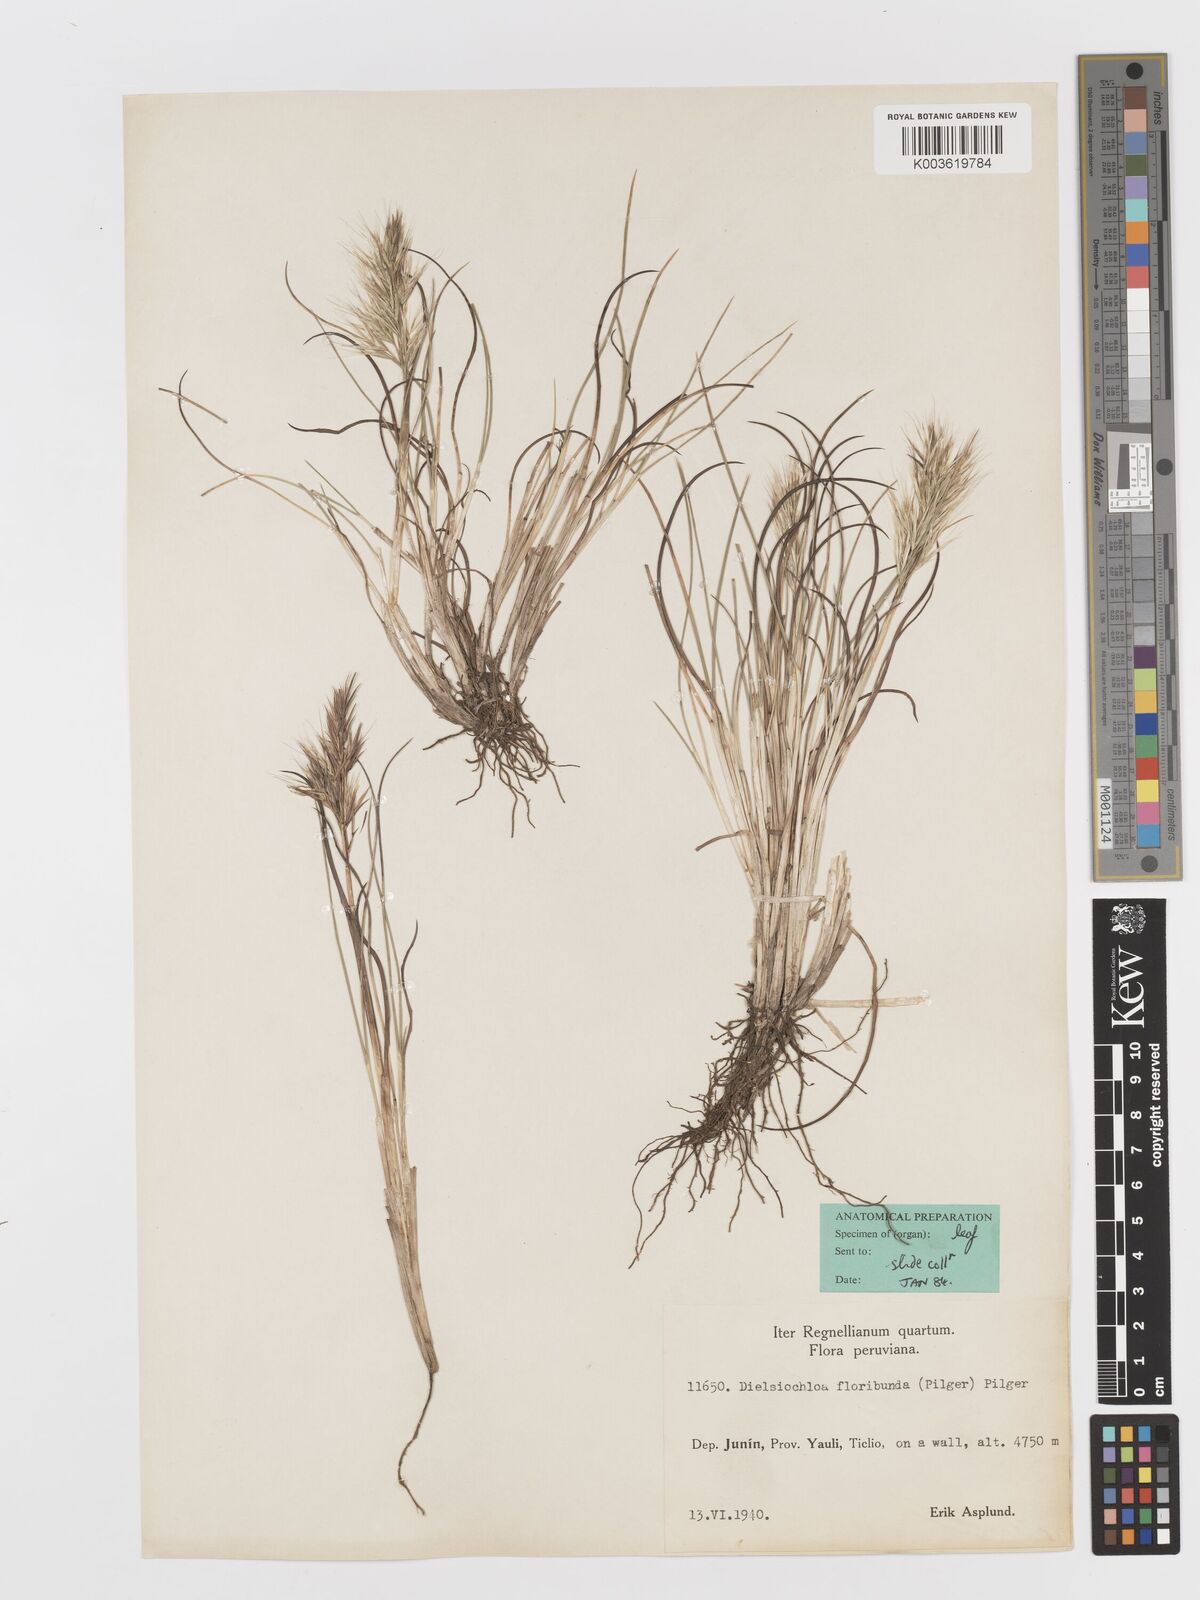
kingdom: Plantae
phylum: Tracheophyta
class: Liliopsida
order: Poales
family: Poaceae
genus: Festuca
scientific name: Festuca floribunda
